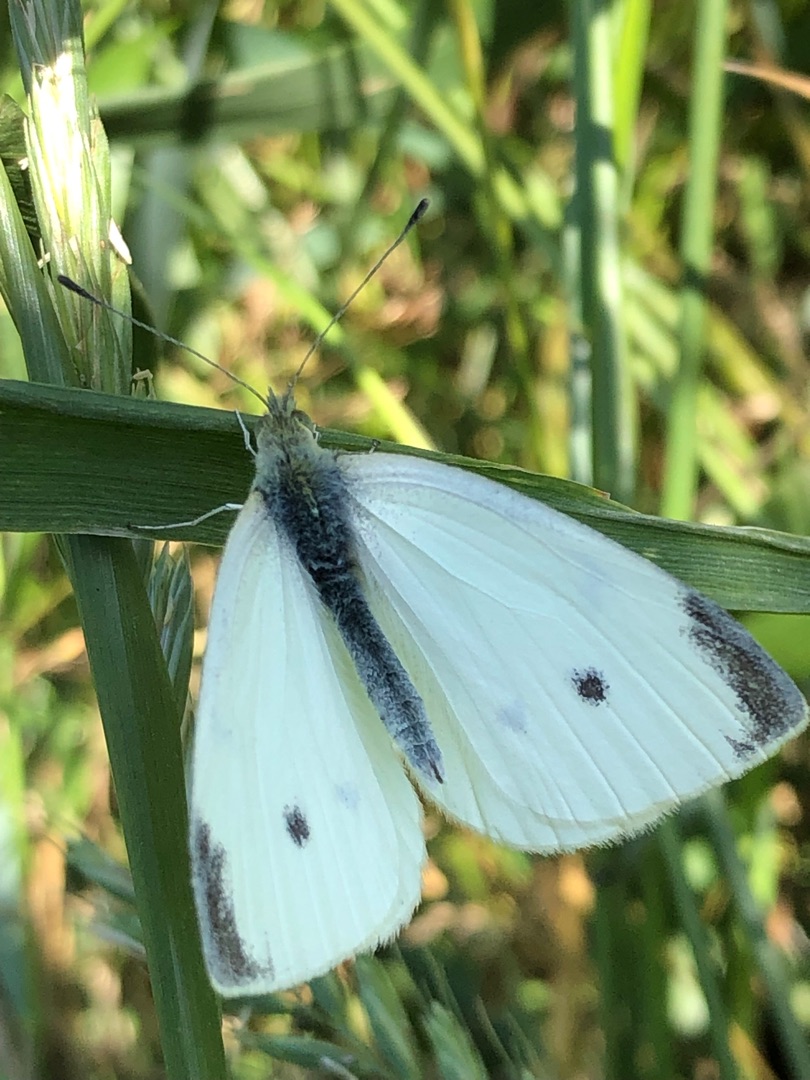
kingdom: Animalia
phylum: Arthropoda
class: Insecta
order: Lepidoptera
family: Pieridae
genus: Pieris
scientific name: Pieris rapae
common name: Lille kålsommerfugl
